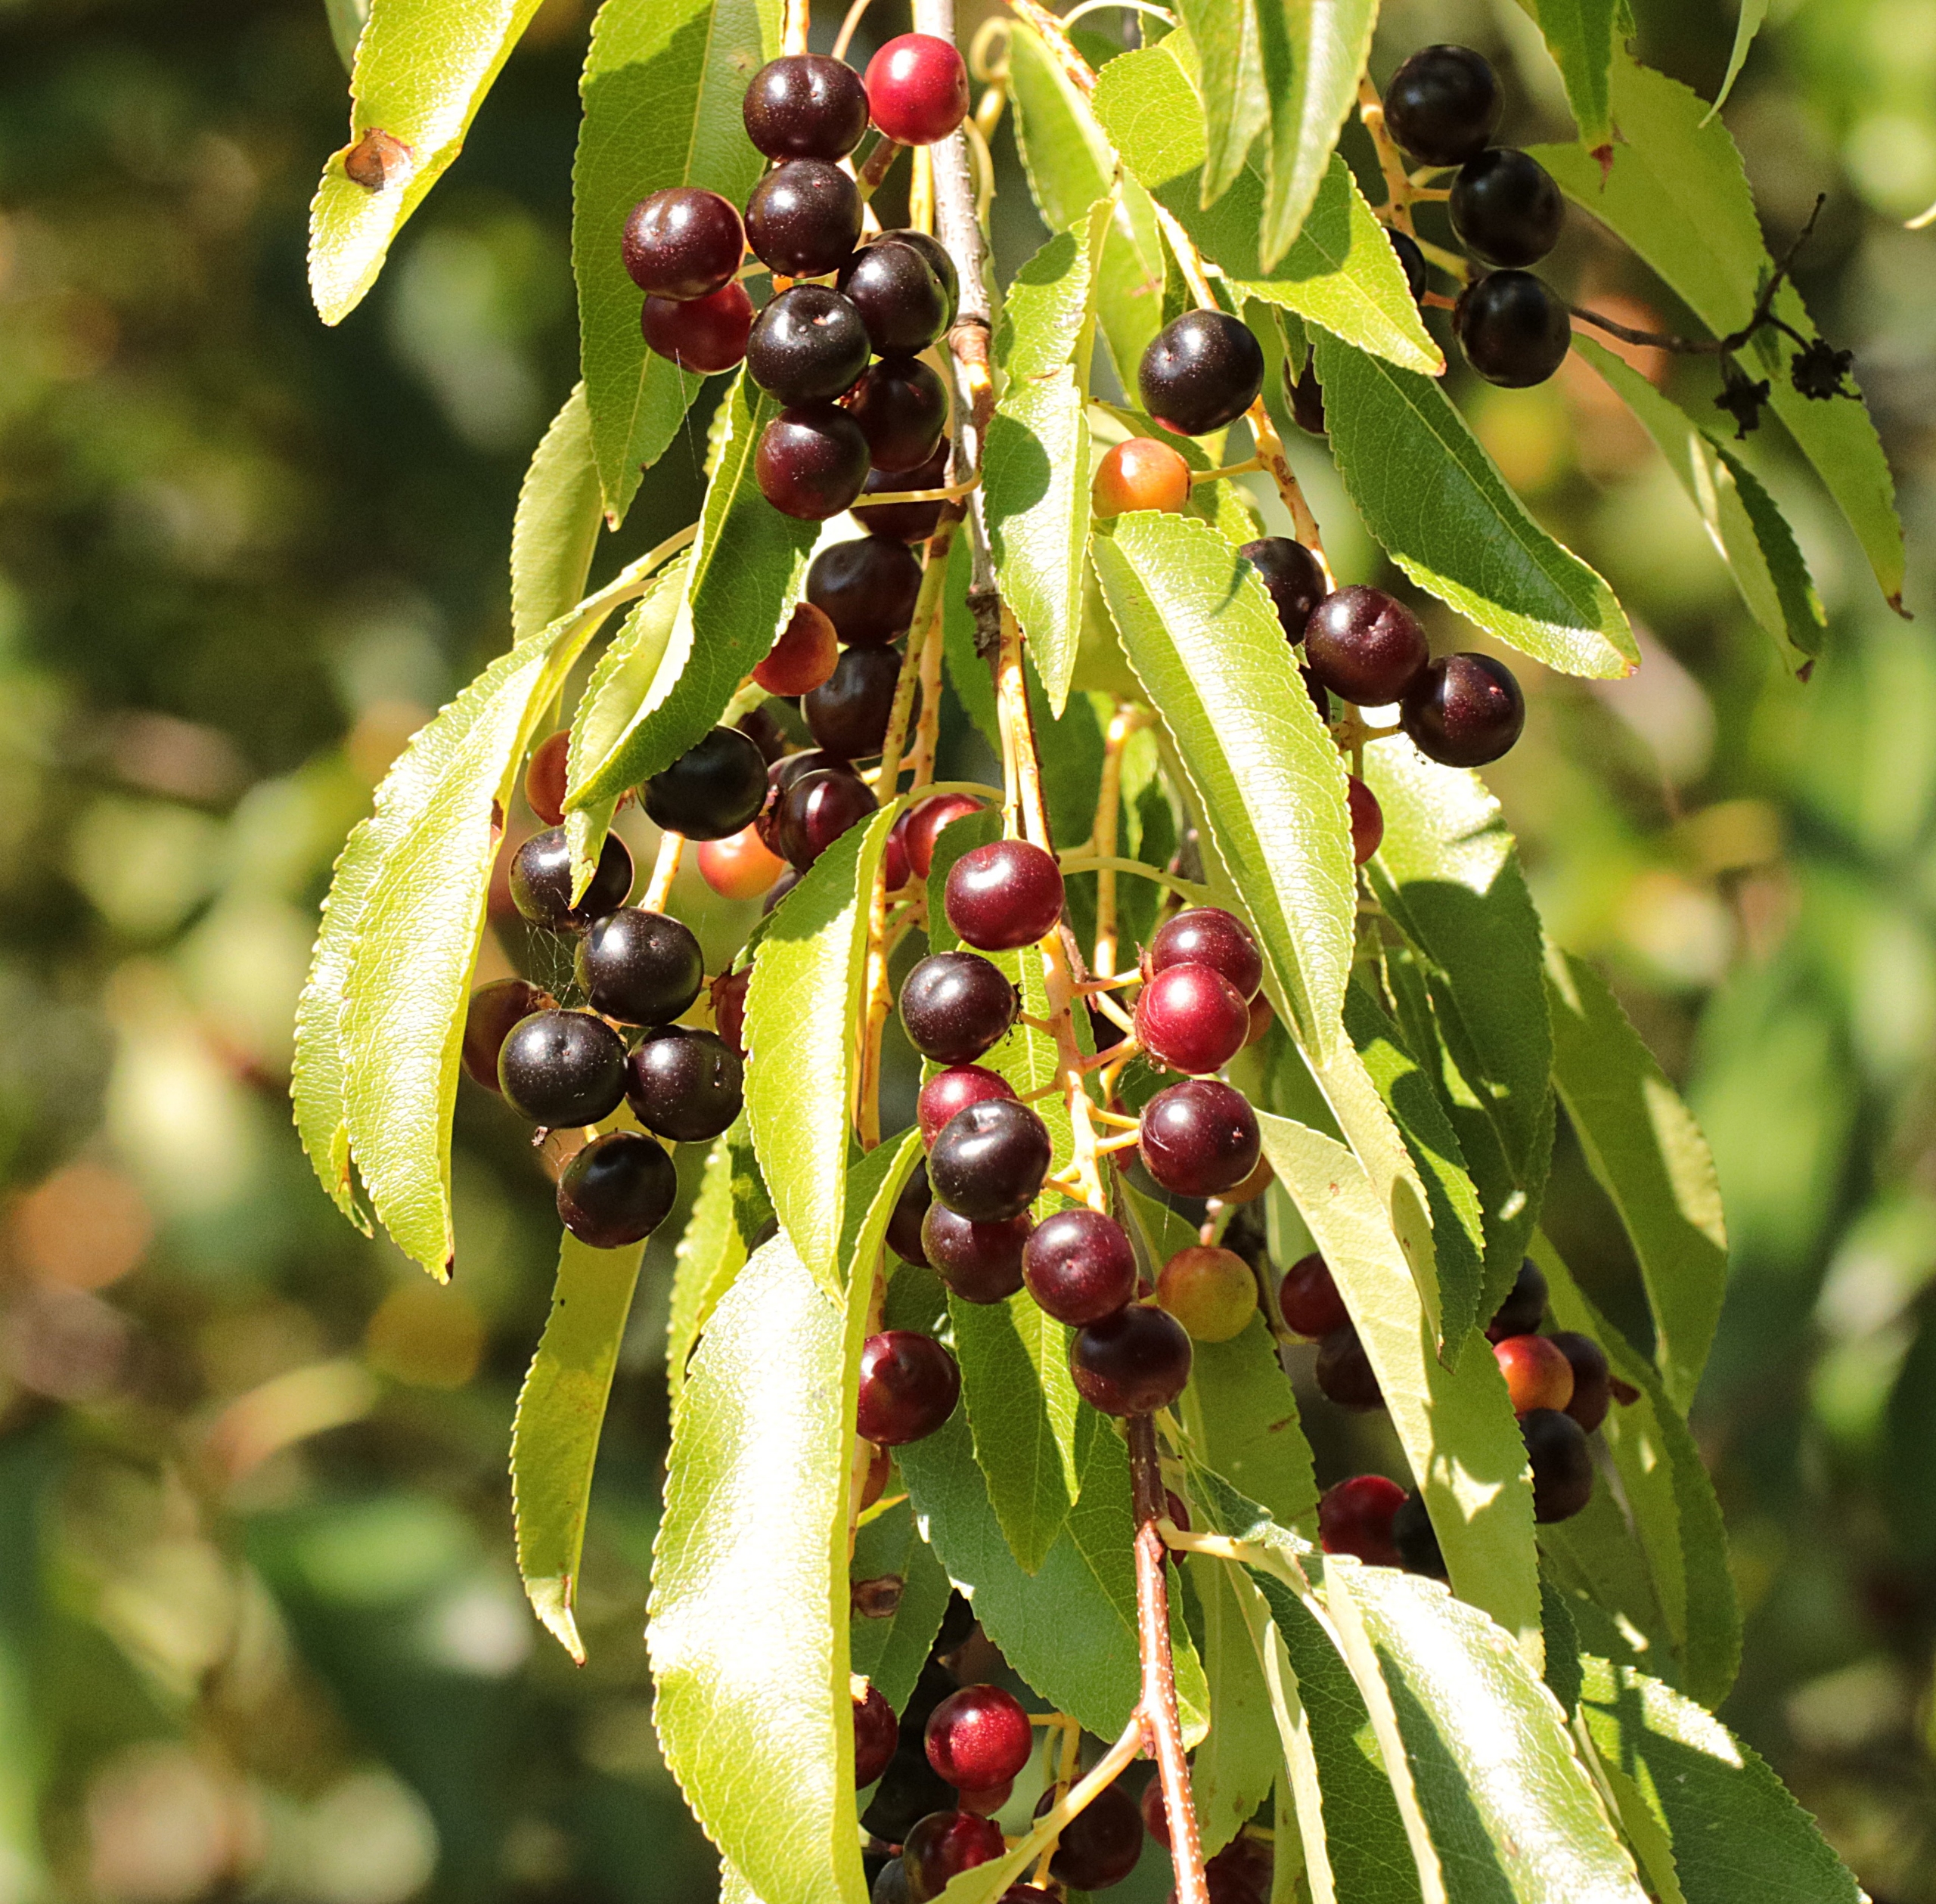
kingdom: Plantae
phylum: Tracheophyta
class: Magnoliopsida
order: Rosales
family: Rosaceae
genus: Prunus
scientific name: Prunus serotina
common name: Glansbladet hæg
